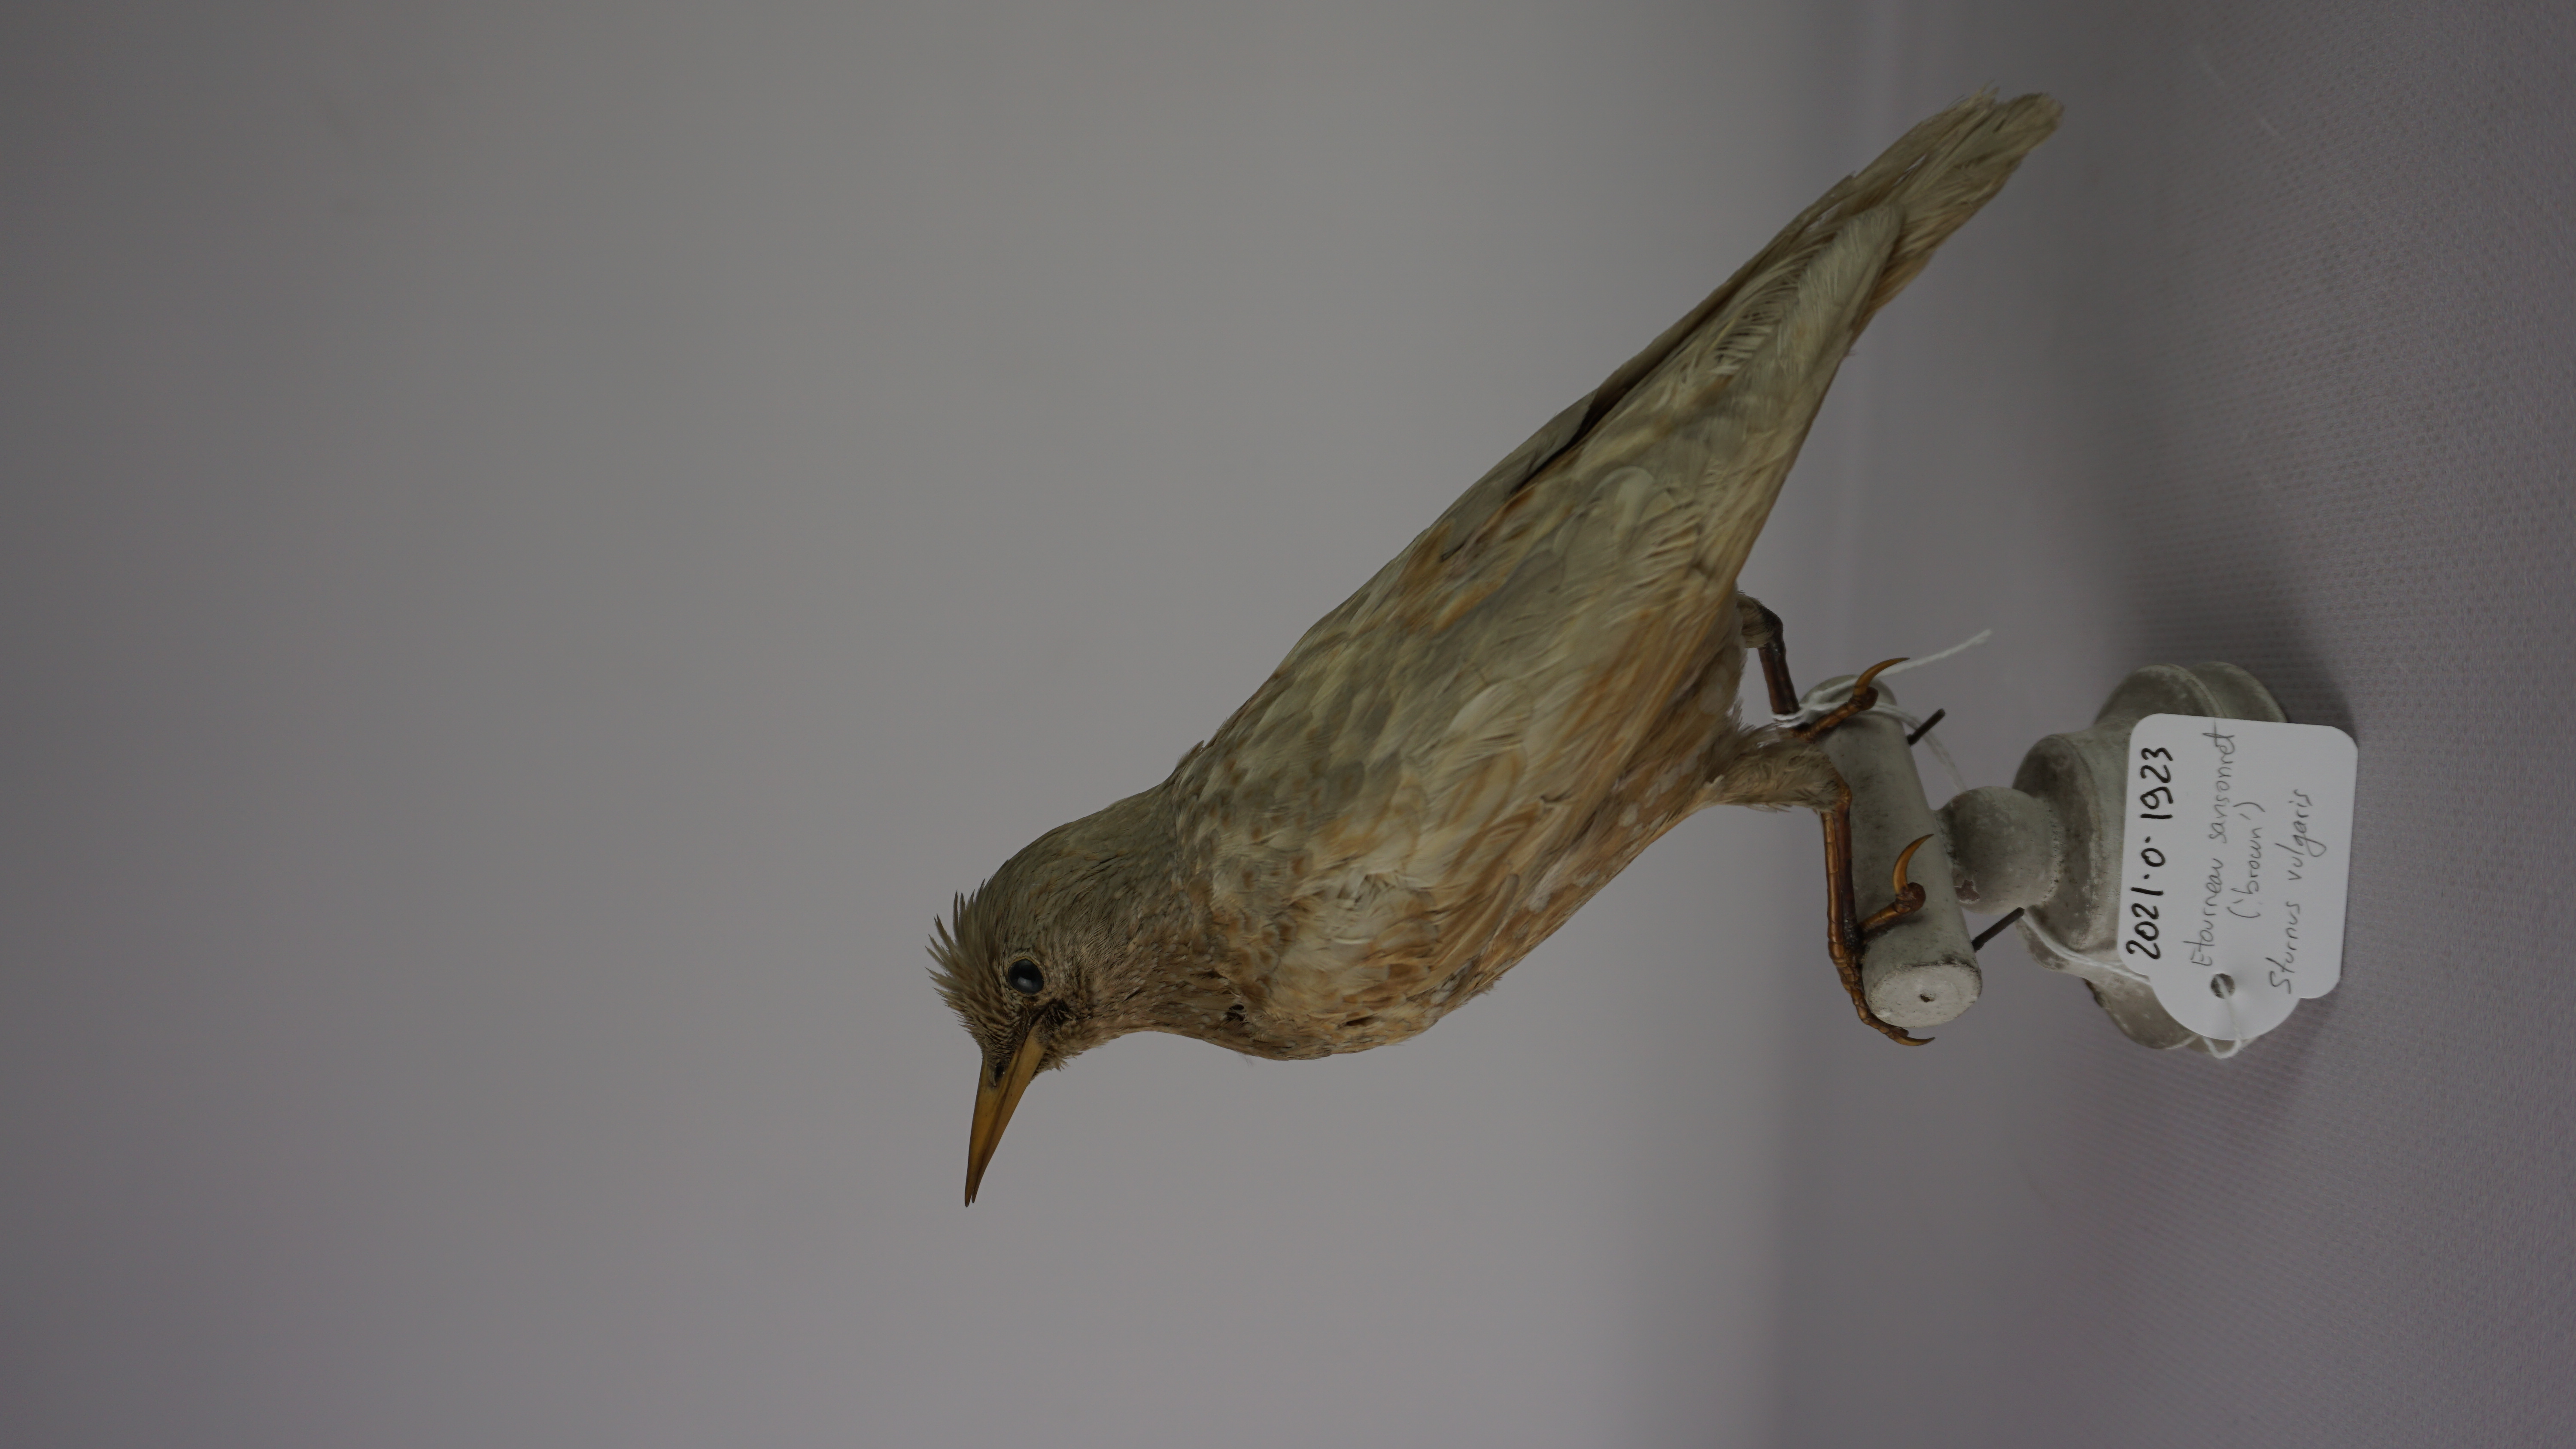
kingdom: Animalia
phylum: Chordata
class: Aves
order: Passeriformes
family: Sturnidae
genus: Sturnus
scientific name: Sturnus vulgaris
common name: Common starling
